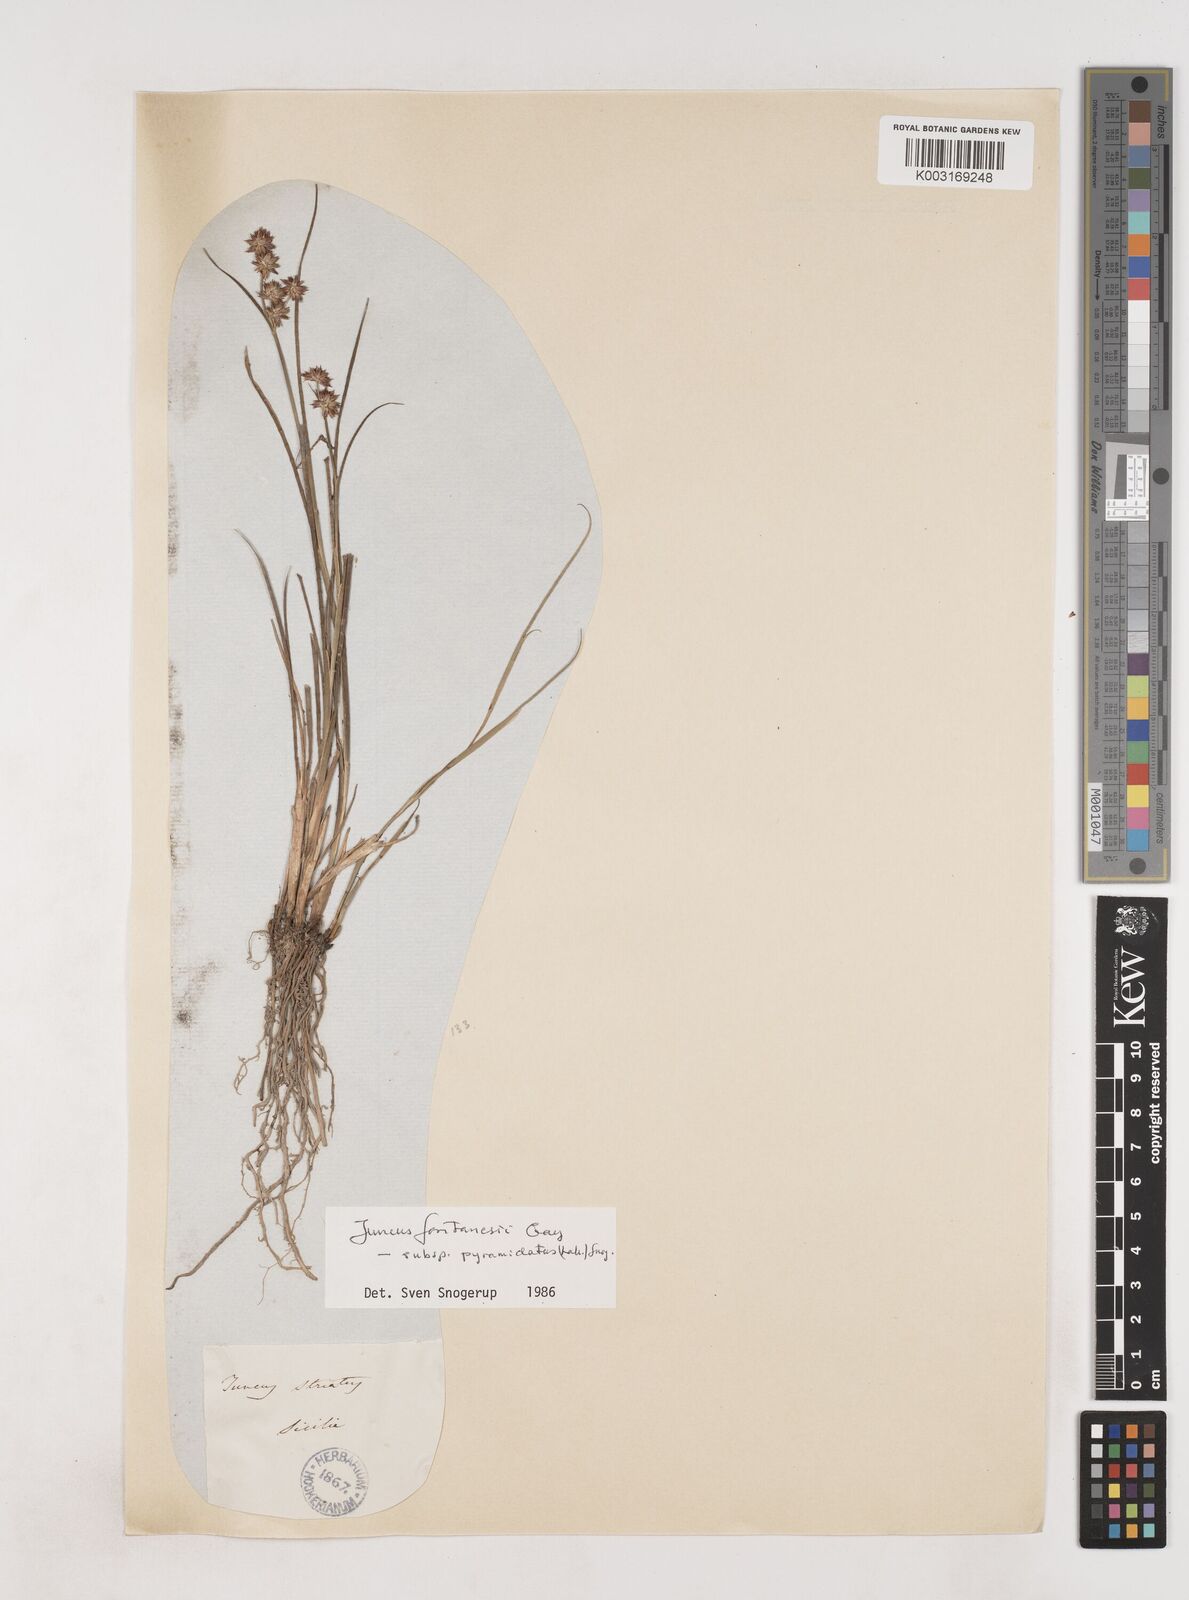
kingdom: Plantae
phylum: Tracheophyta
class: Liliopsida
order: Poales
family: Juncaceae
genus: Juncus
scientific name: Juncus fontanesii
